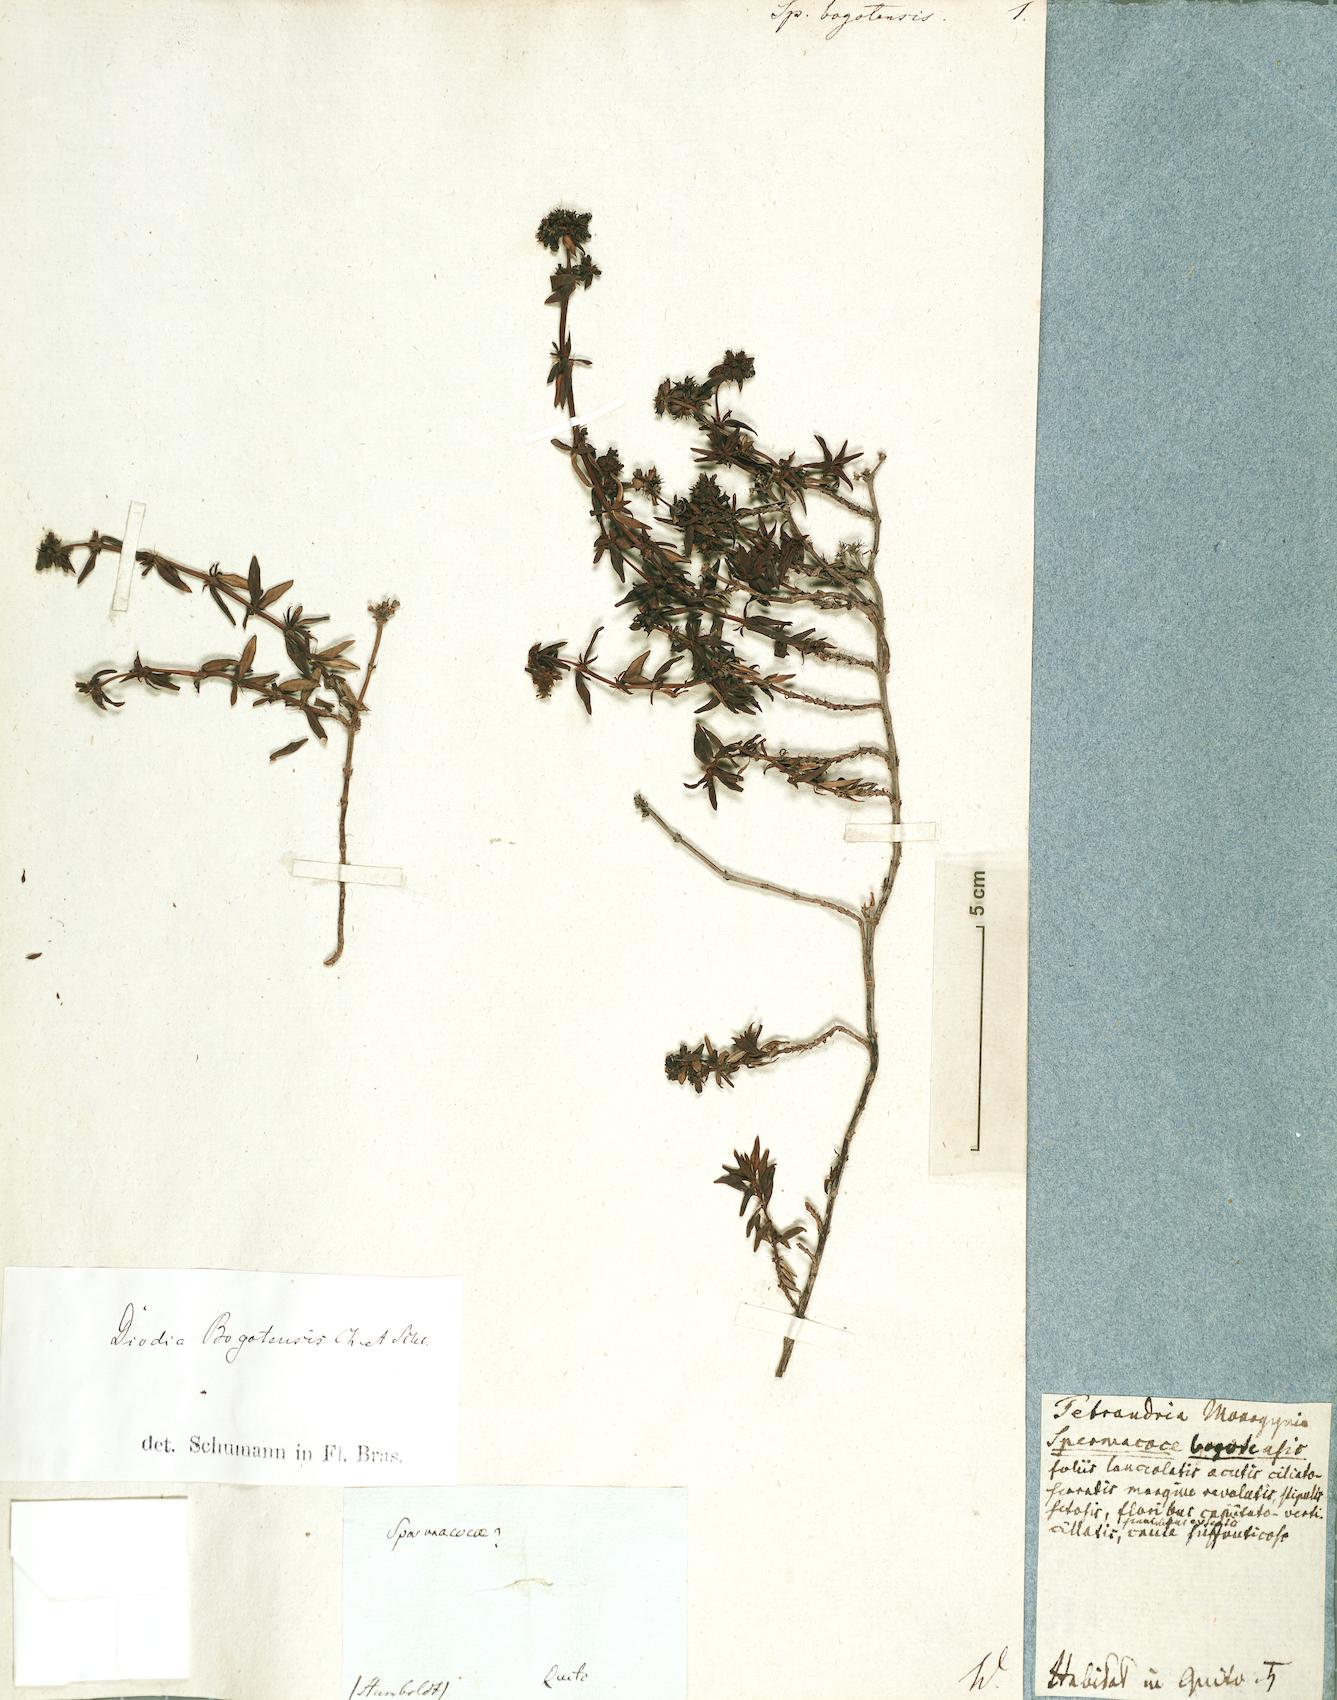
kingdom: Plantae
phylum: Tracheophyta
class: Magnoliopsida
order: Gentianales
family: Rubiaceae
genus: Galianthe
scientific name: Galianthe bogotensis
